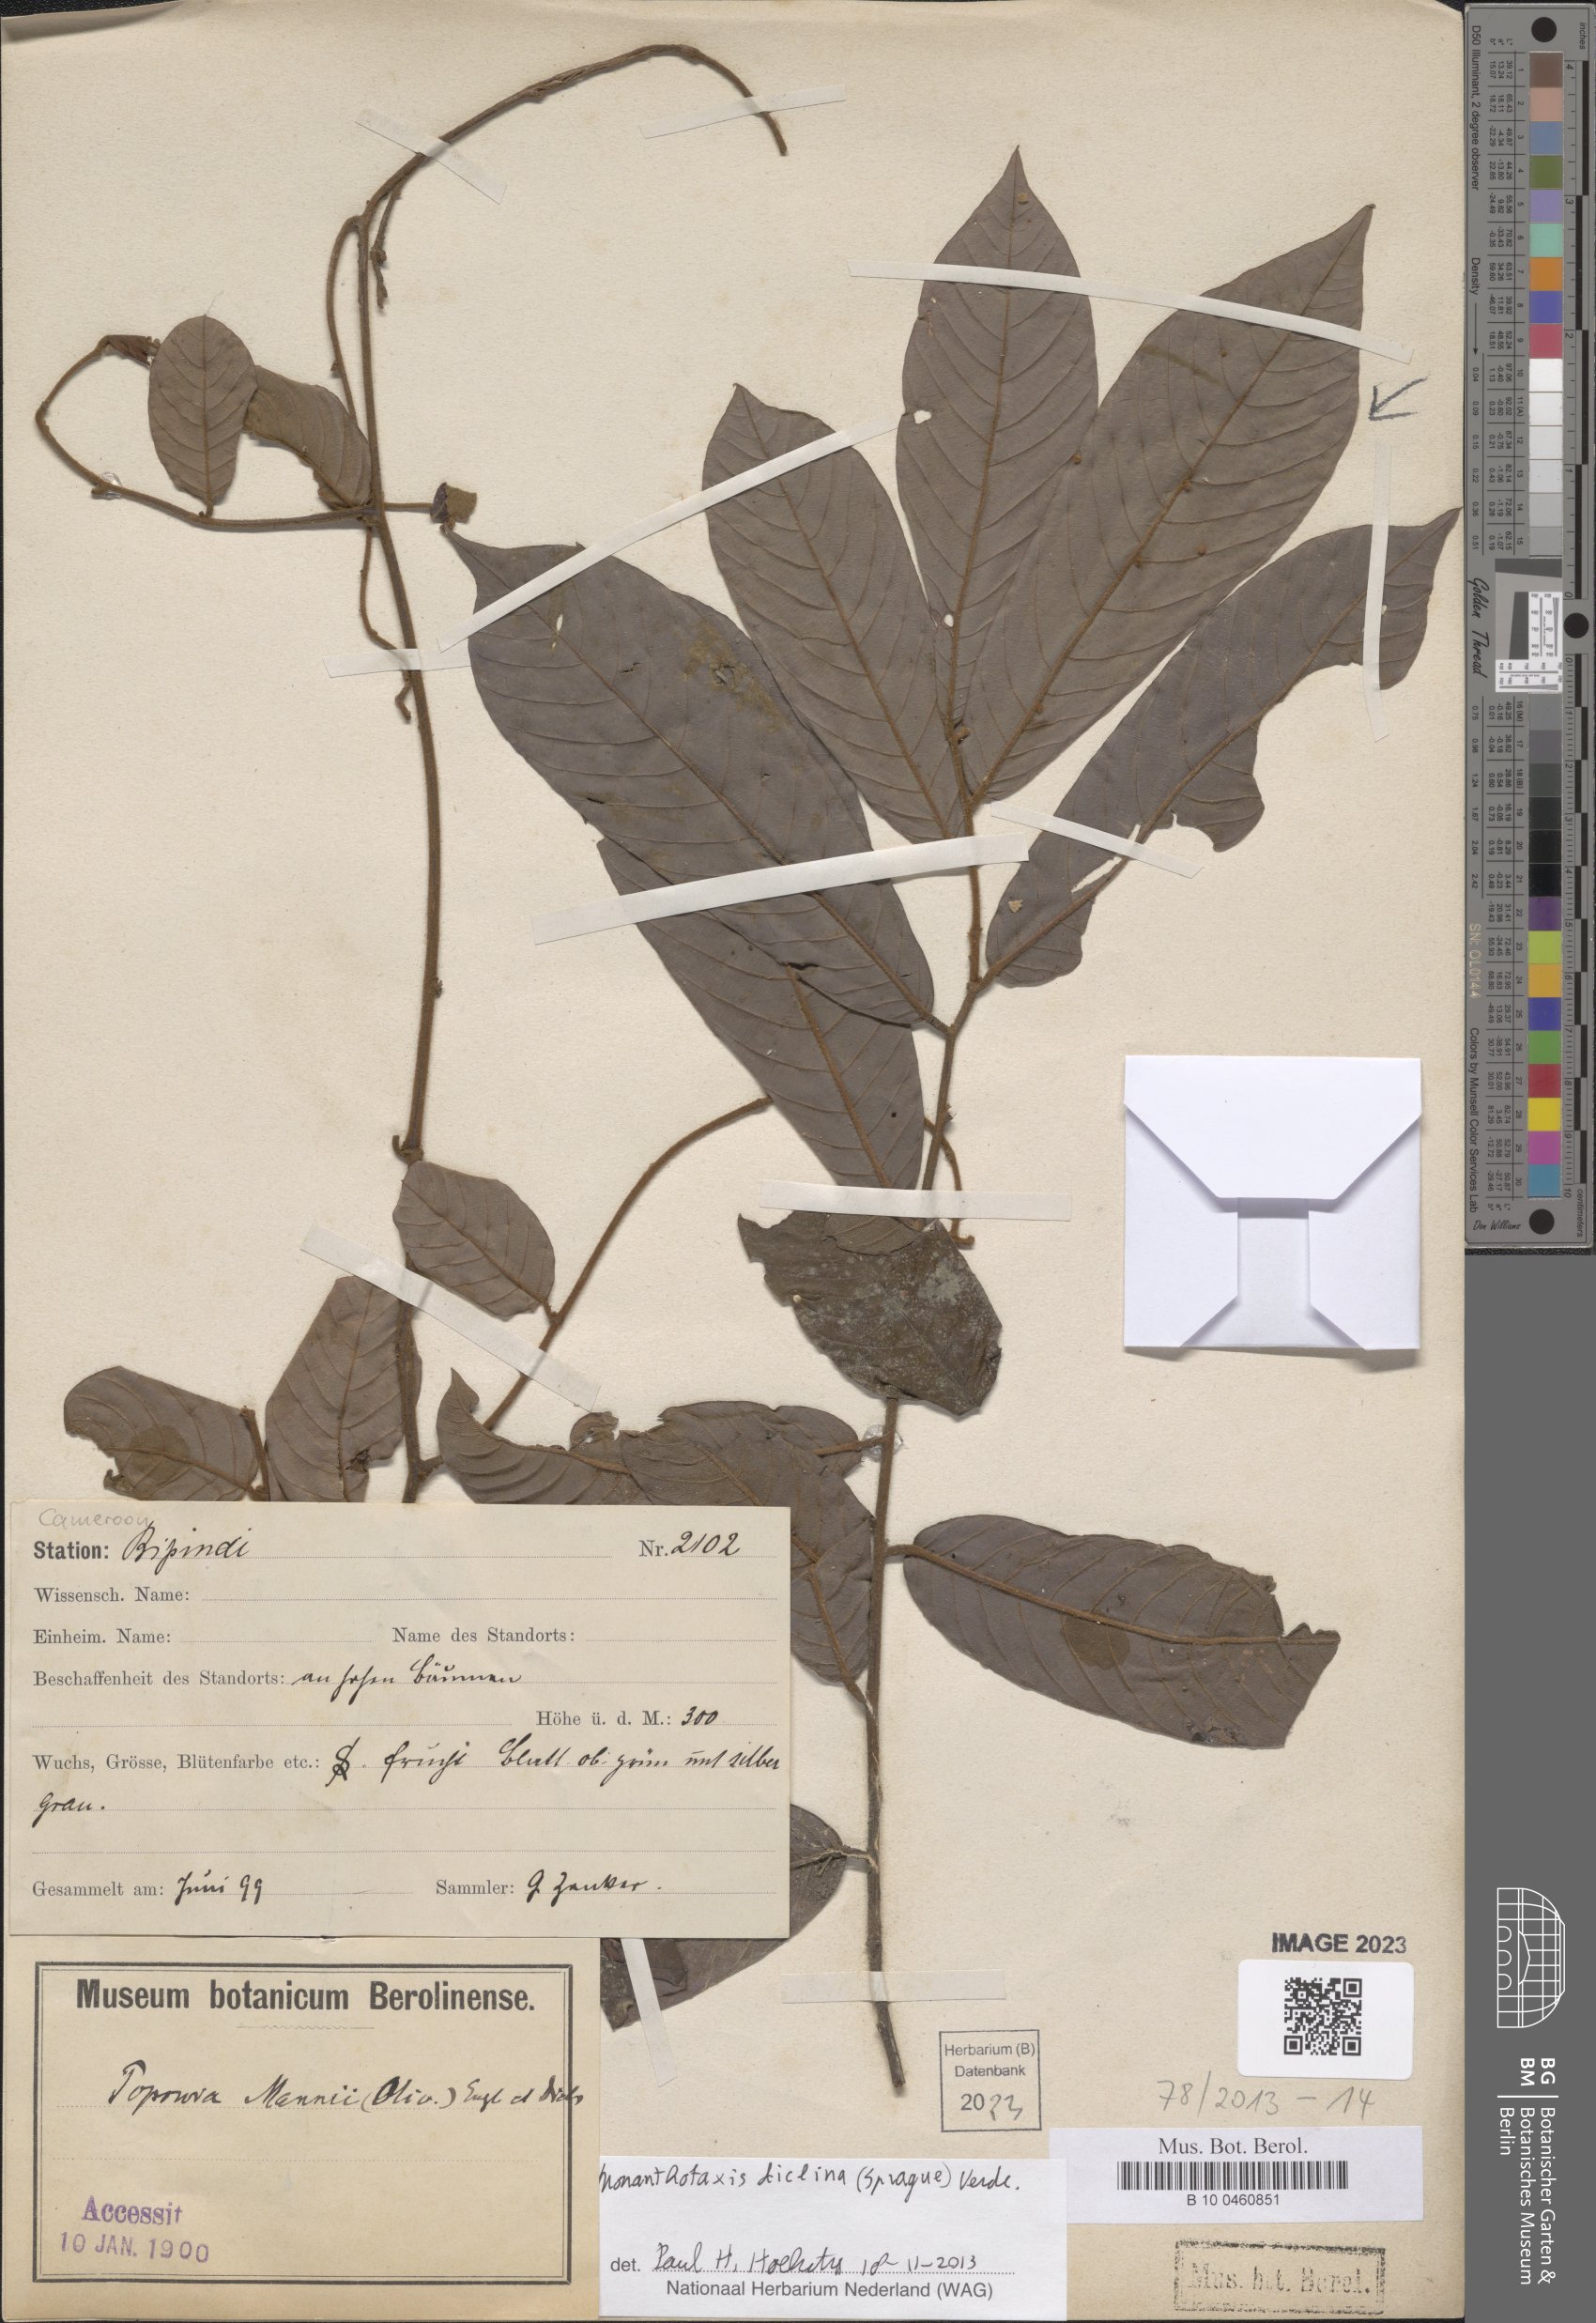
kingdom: Plantae
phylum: Tracheophyta
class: Magnoliopsida
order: Magnoliales
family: Annonaceae
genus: Monanthotaxis
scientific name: Monanthotaxis diclina
